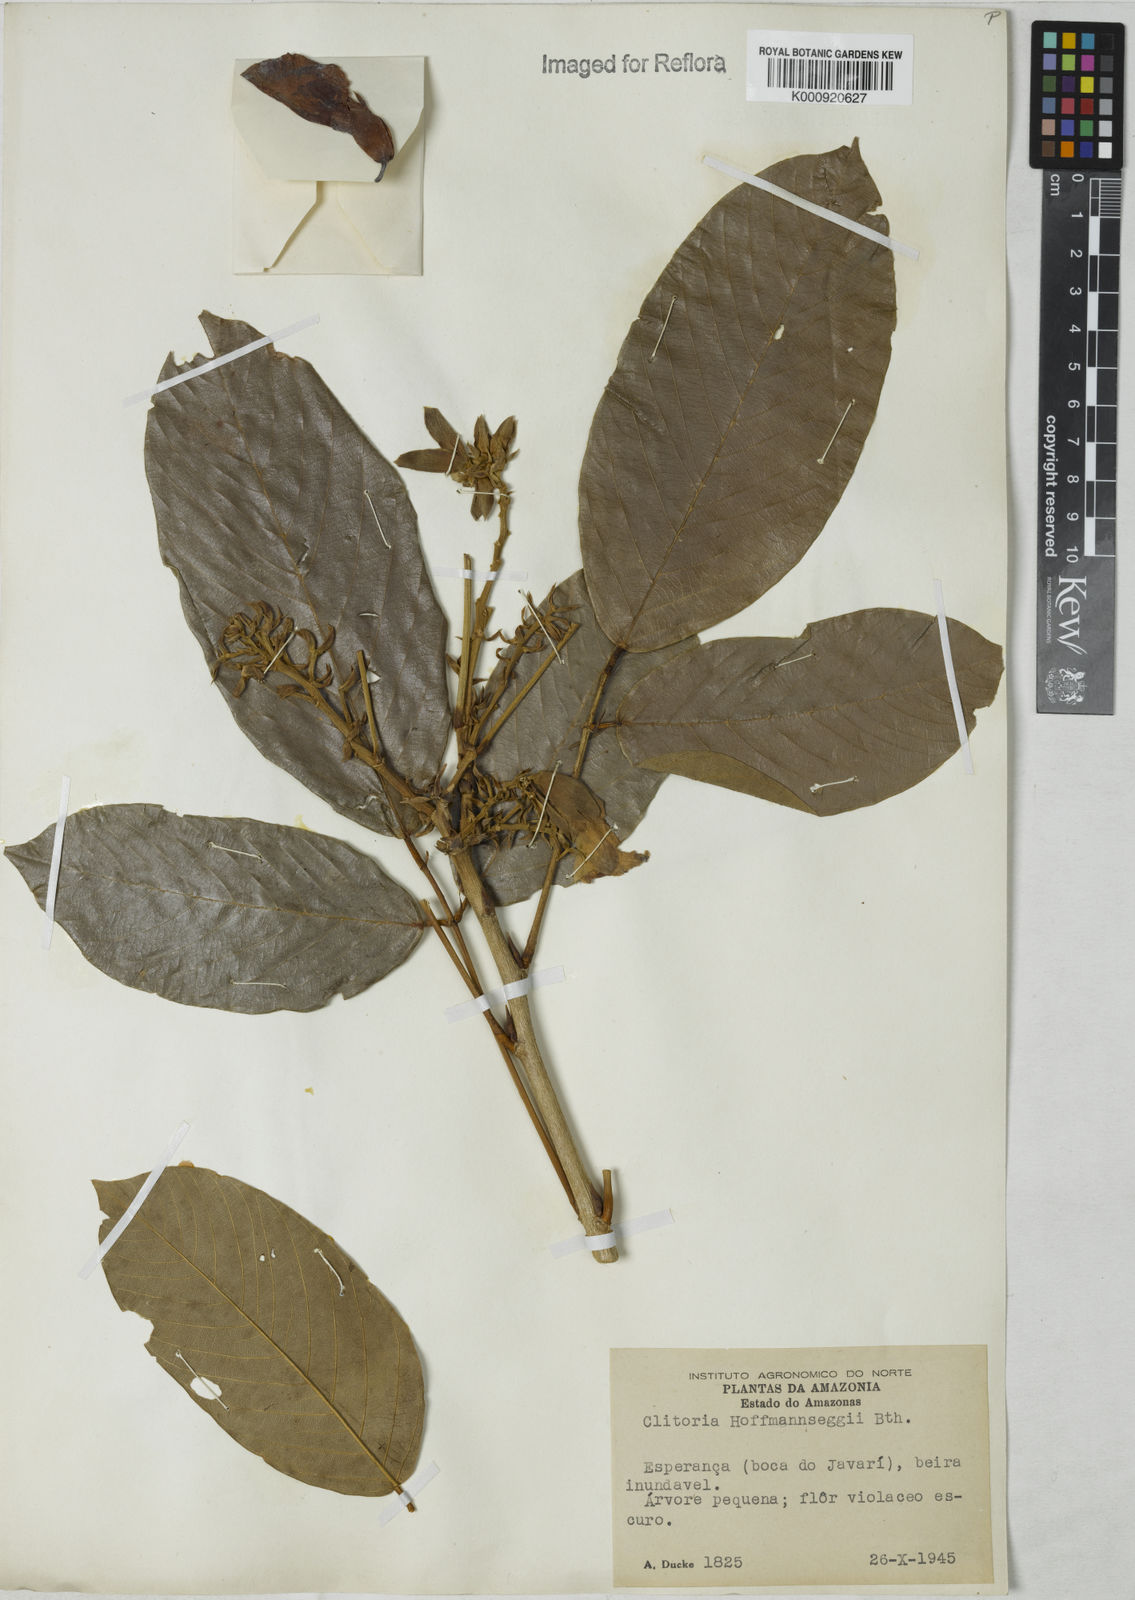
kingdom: Plantae
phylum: Tracheophyta
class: Magnoliopsida
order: Fabales
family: Fabaceae
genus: Clitoria
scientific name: Clitoria arborescens
